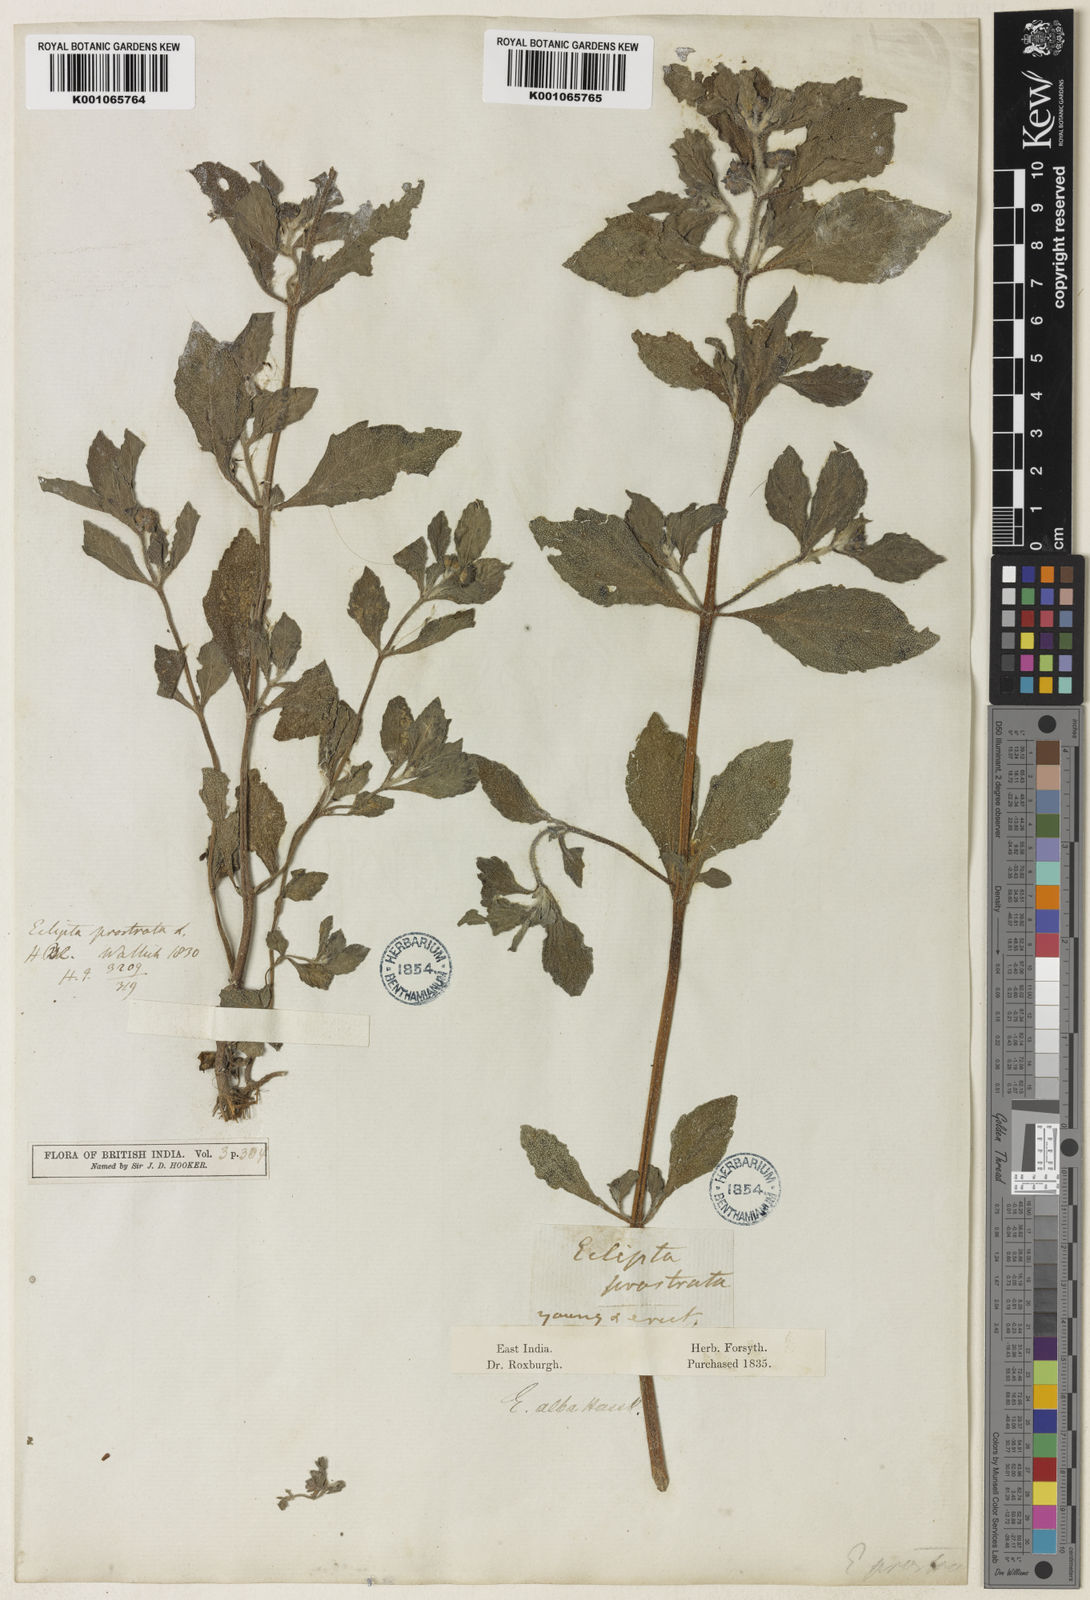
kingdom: Plantae
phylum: Tracheophyta
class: Magnoliopsida
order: Asterales
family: Asteraceae
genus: Eclipta
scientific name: Eclipta alba
